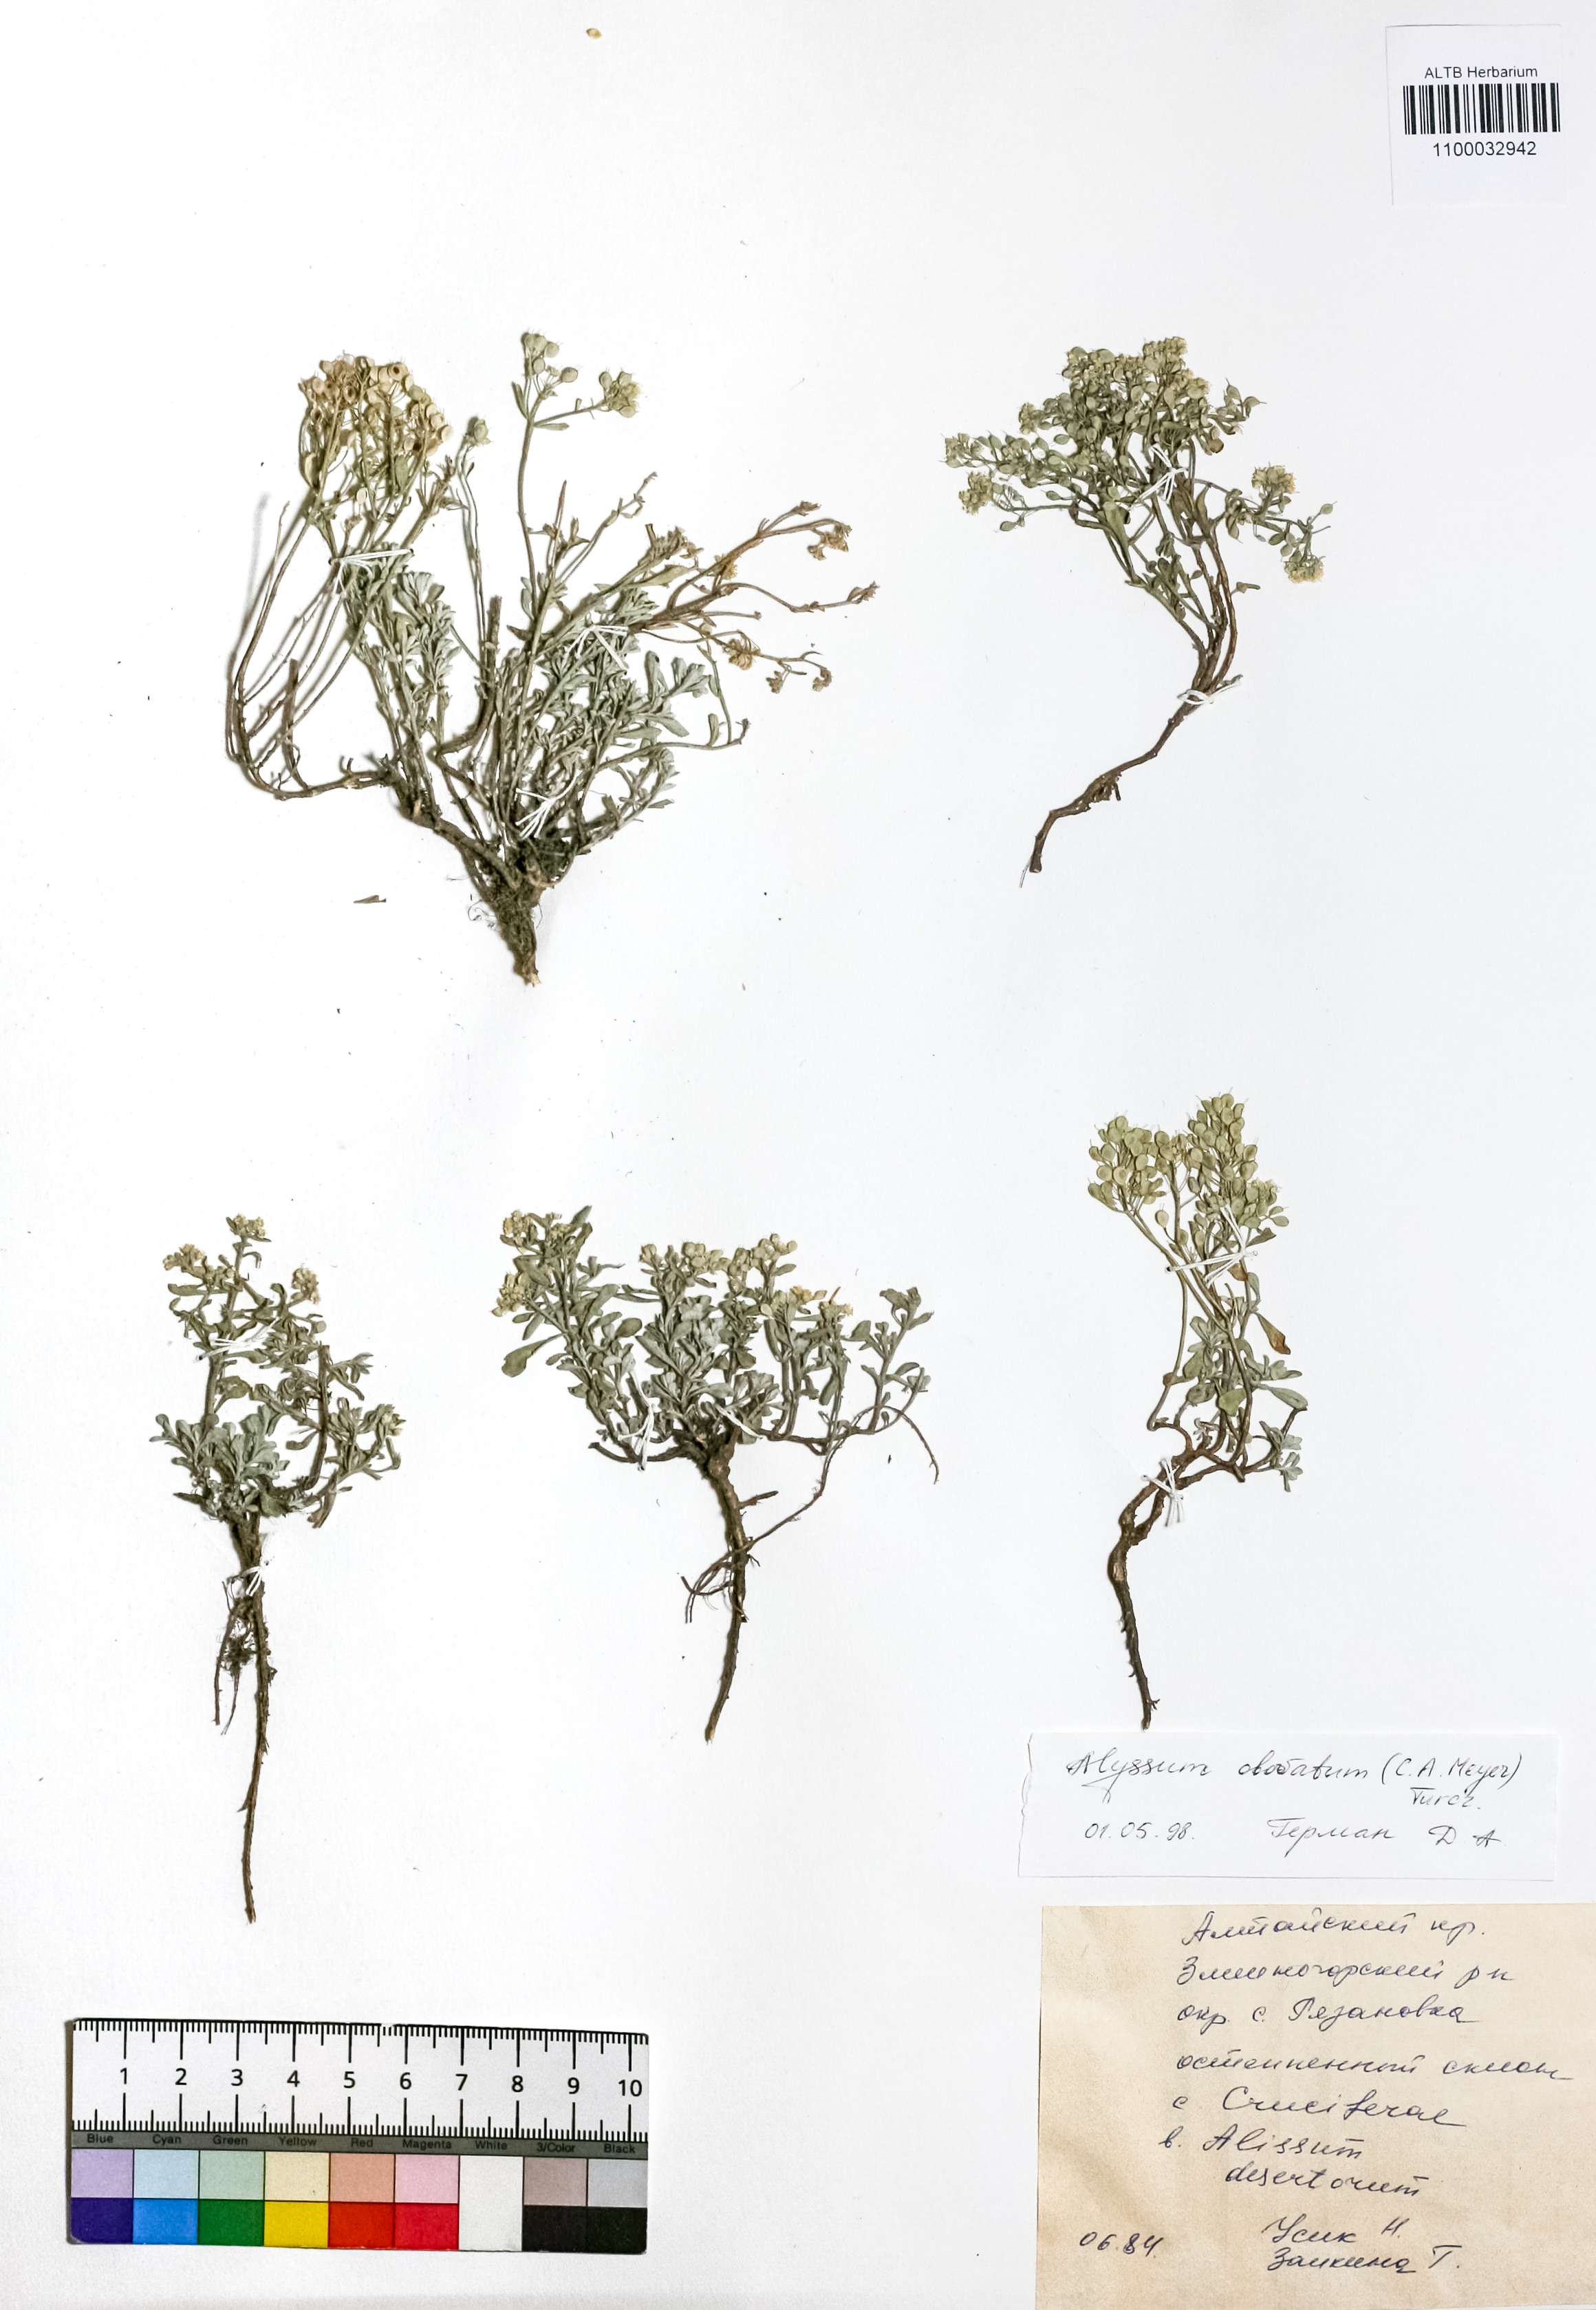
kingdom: Plantae
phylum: Tracheophyta
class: Magnoliopsida
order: Brassicales
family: Brassicaceae
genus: Odontarrhena
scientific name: Odontarrhena obovata
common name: American alyssum
